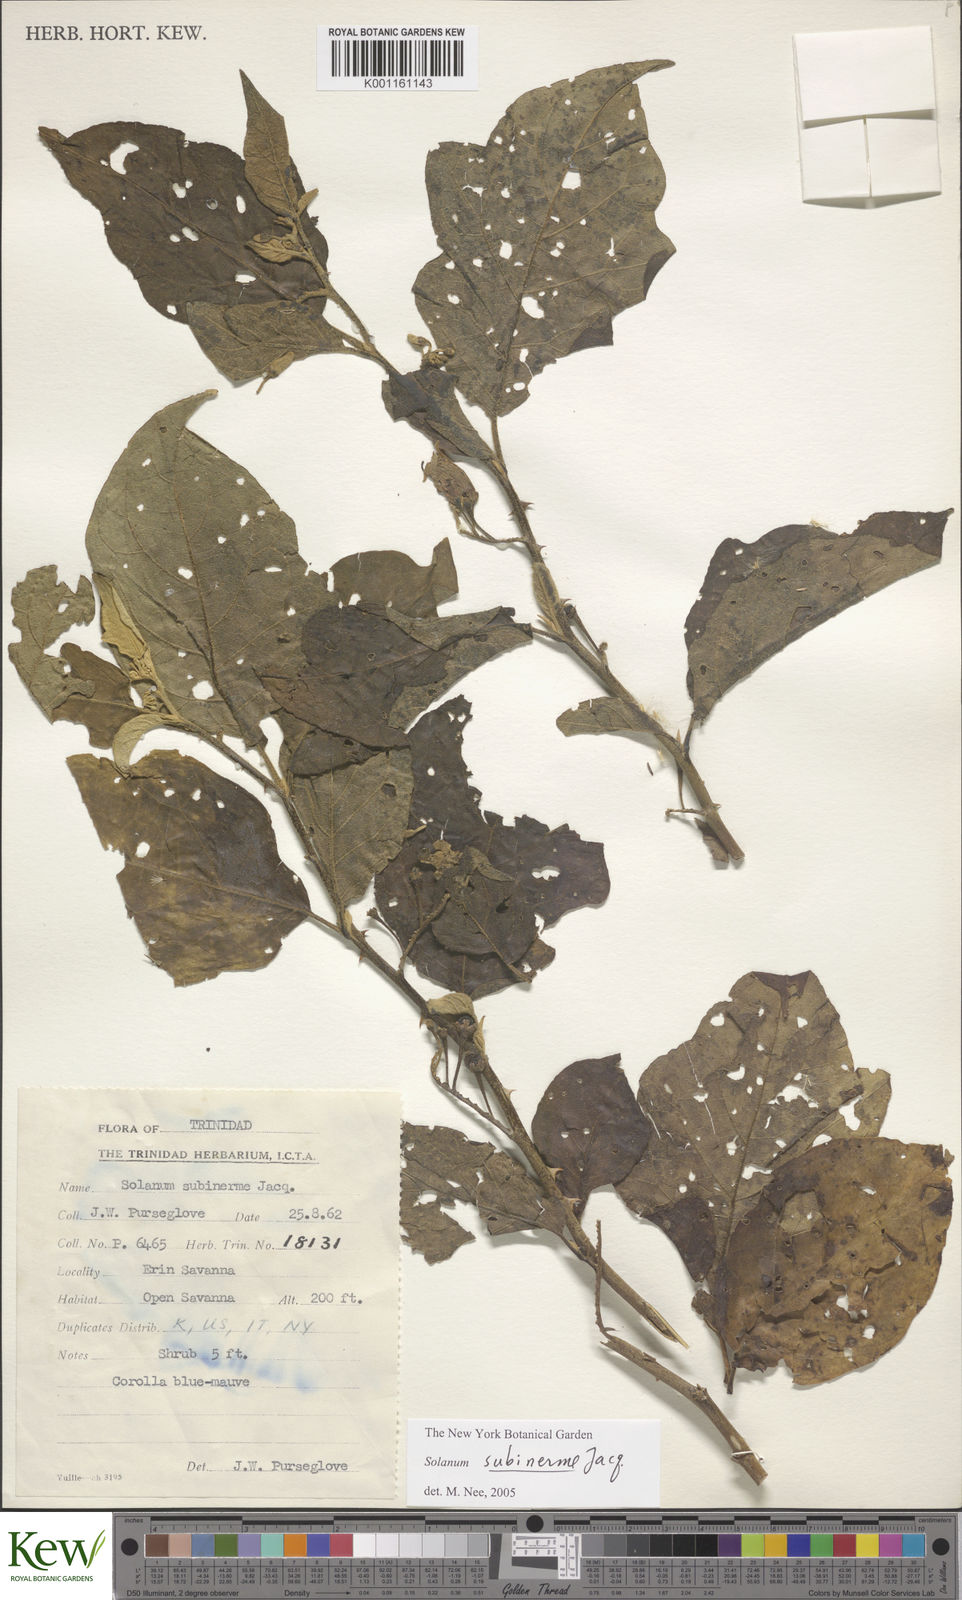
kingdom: Plantae
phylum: Tracheophyta
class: Magnoliopsida
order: Solanales
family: Solanaceae
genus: Solanum
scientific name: Solanum subinerme
